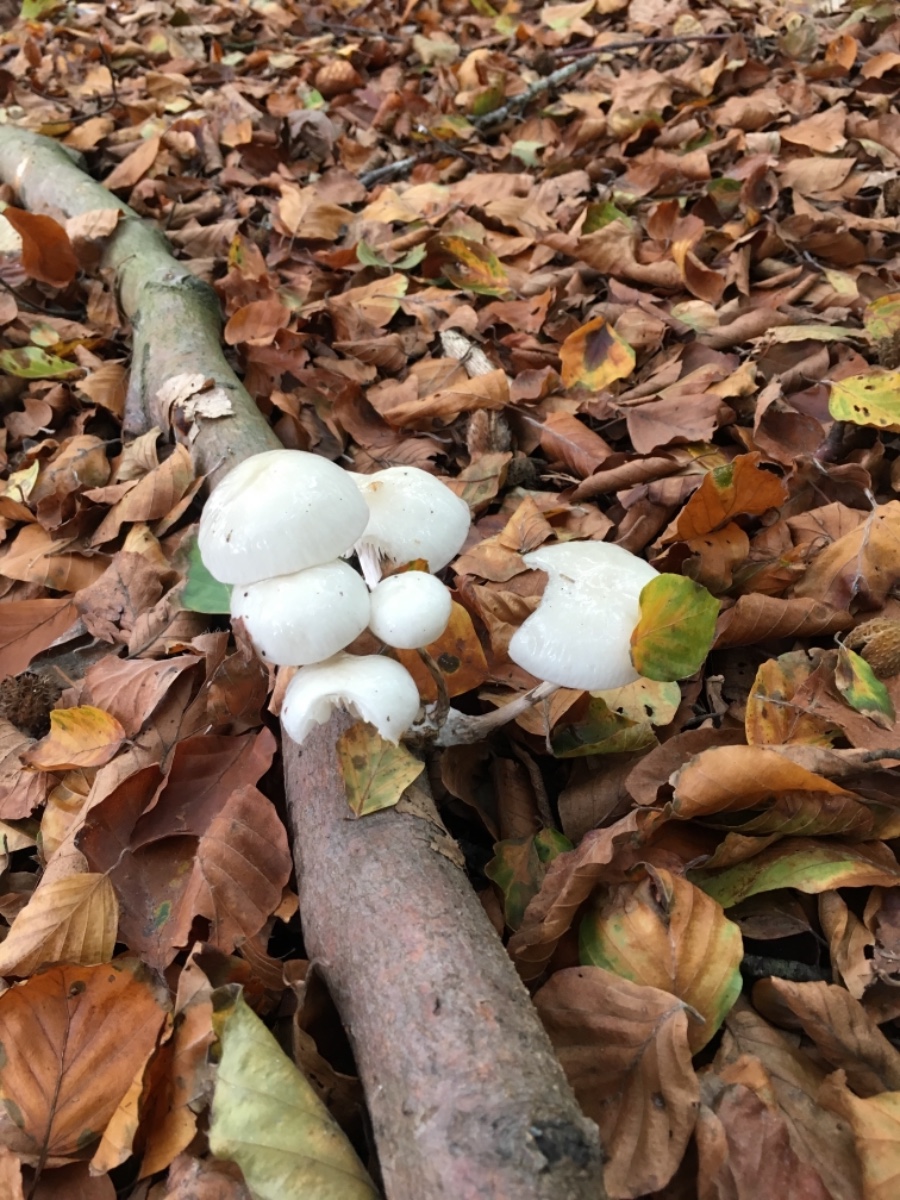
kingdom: Fungi
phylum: Basidiomycota
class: Agaricomycetes
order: Agaricales
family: Physalacriaceae
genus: Mucidula
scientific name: Mucidula mucida
